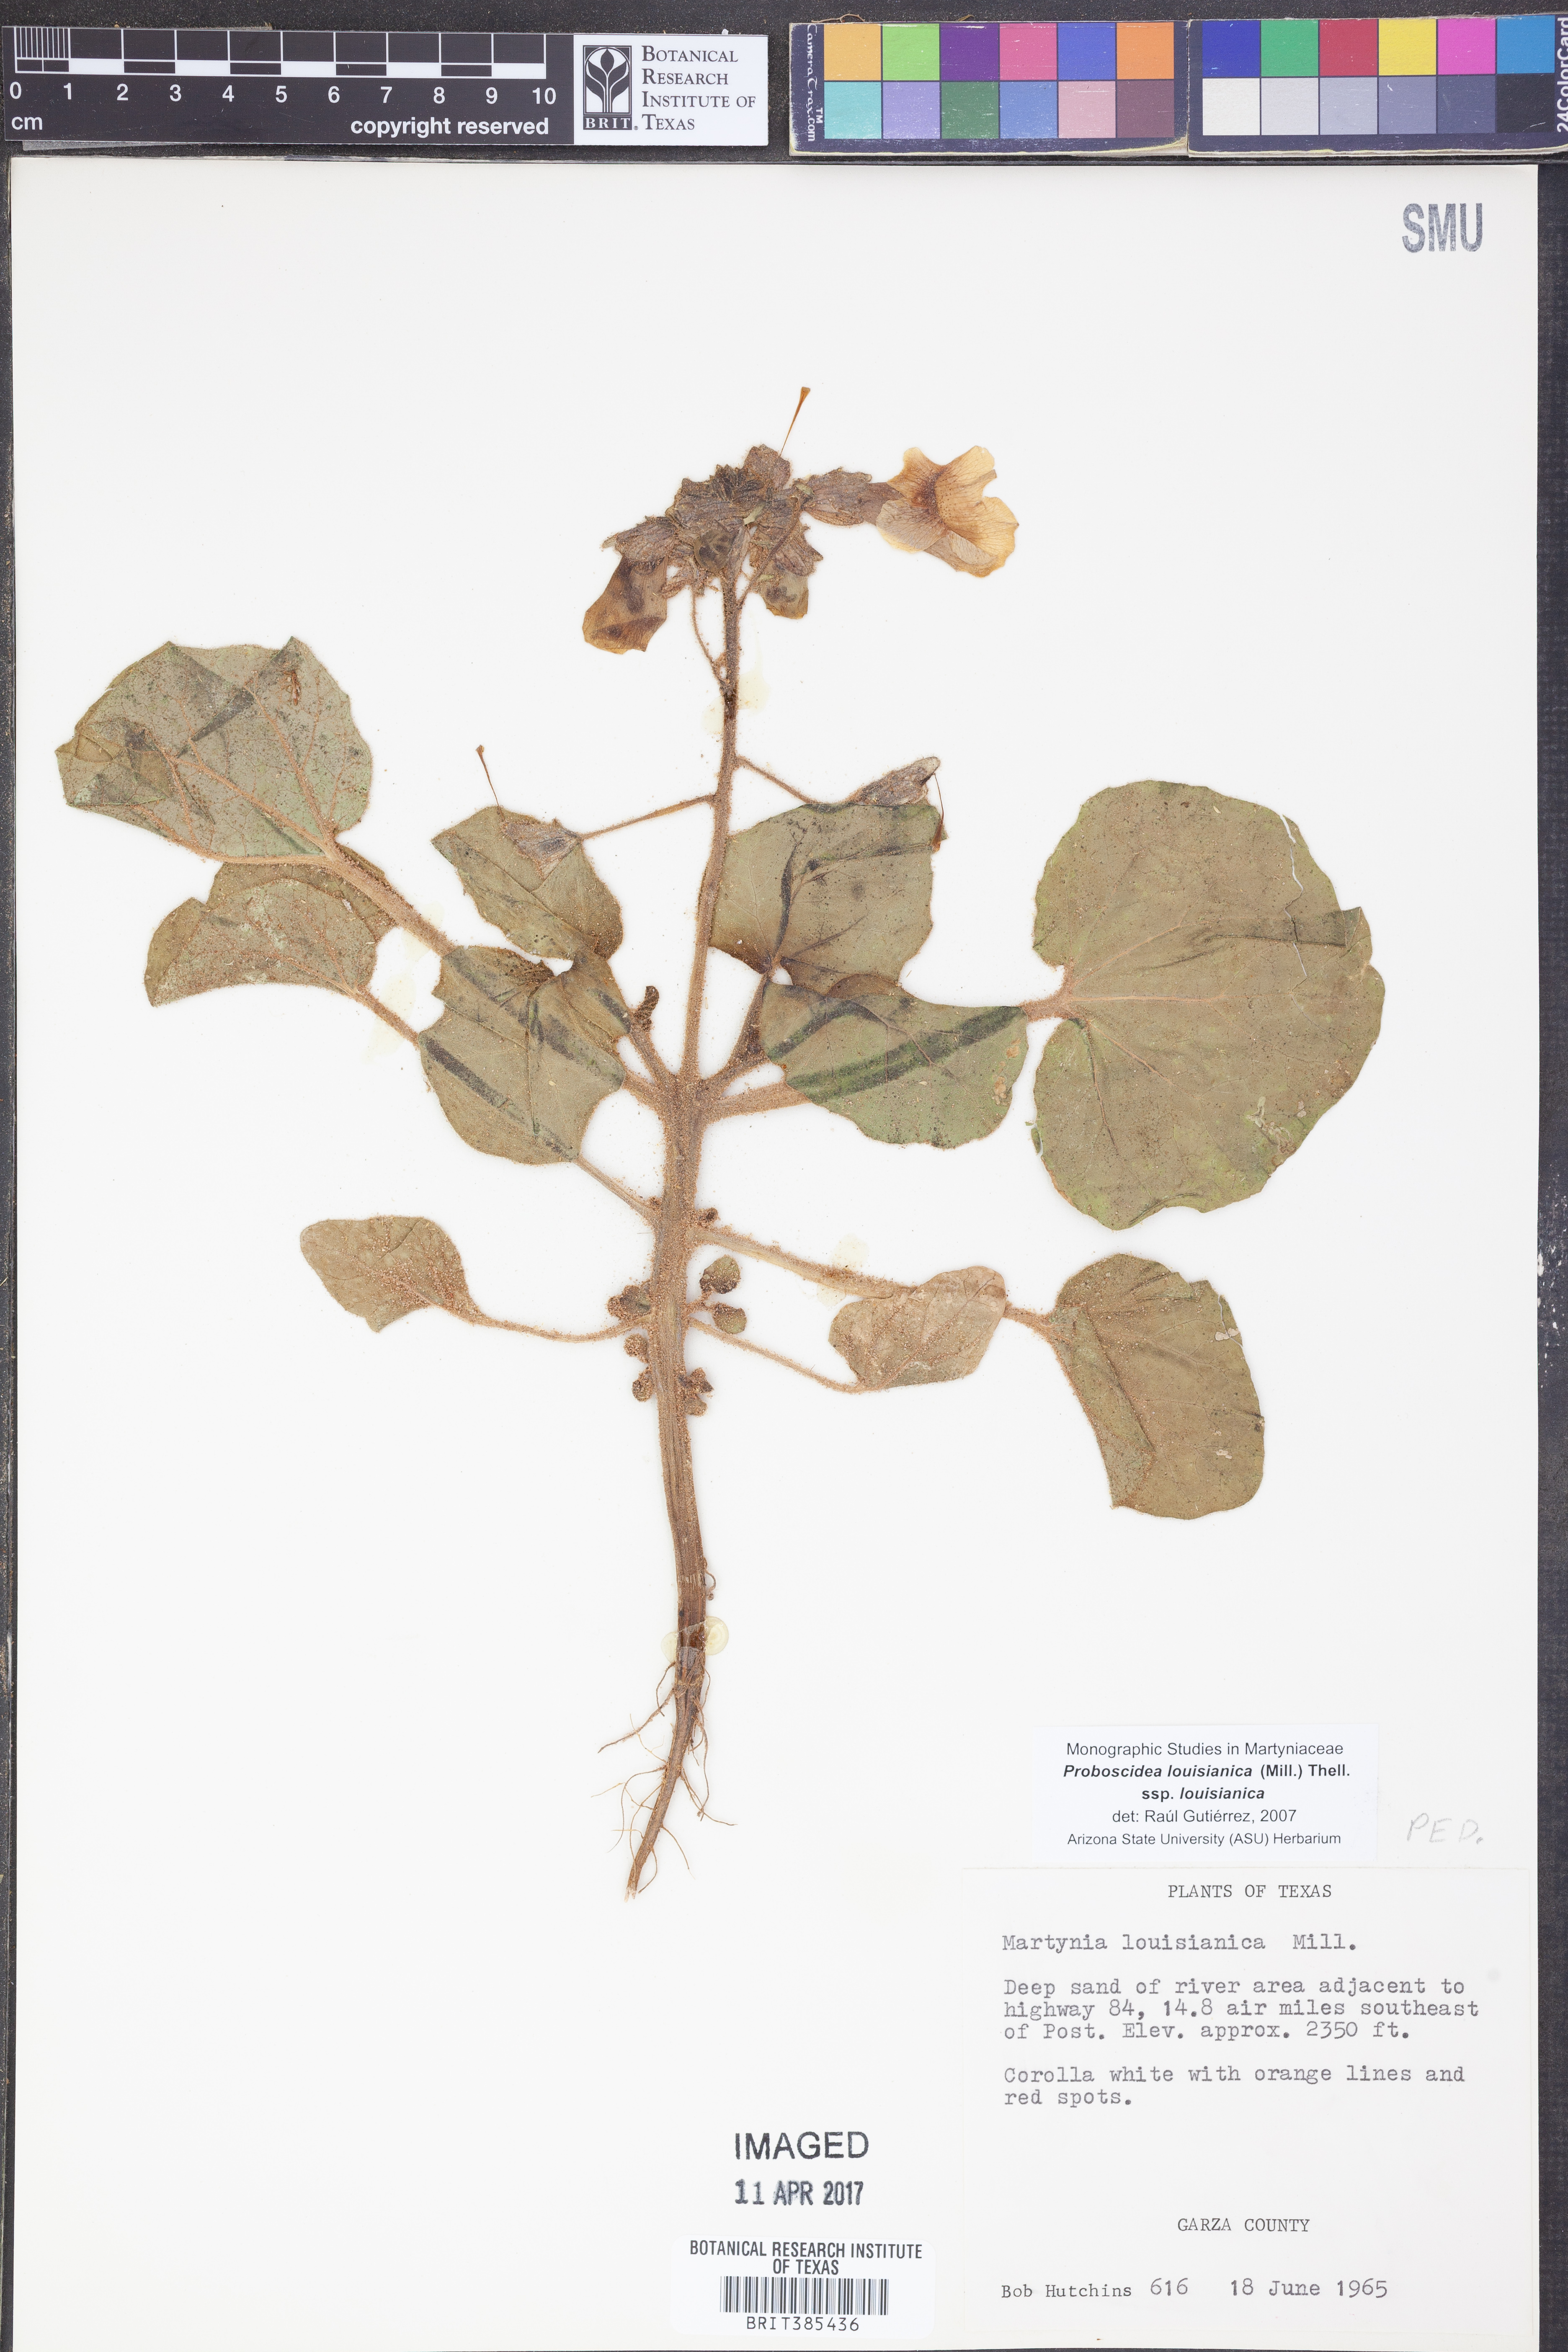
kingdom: Plantae
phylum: Tracheophyta
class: Magnoliopsida
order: Lamiales
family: Martyniaceae
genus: Proboscidea
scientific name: Proboscidea louisianica
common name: Elephant tusks
